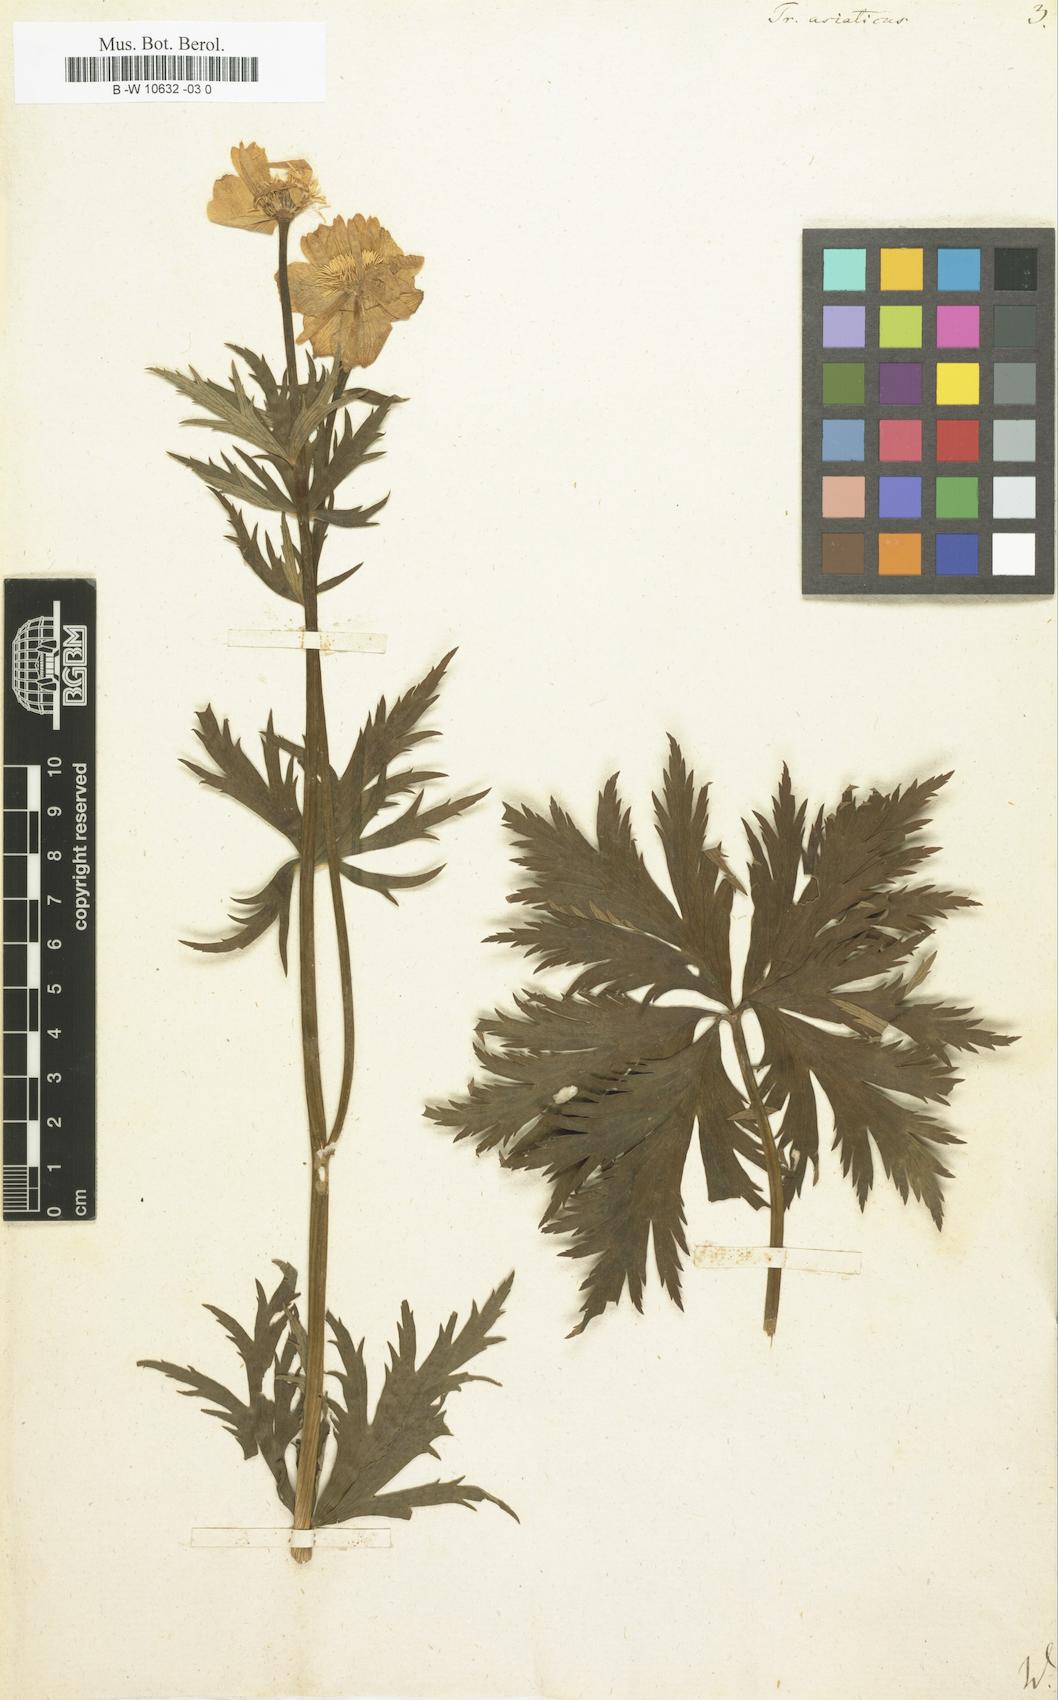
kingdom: Plantae
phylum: Tracheophyta
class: Magnoliopsida
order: Ranunculales
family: Ranunculaceae
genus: Trollius
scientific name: Trollius asiaticus
